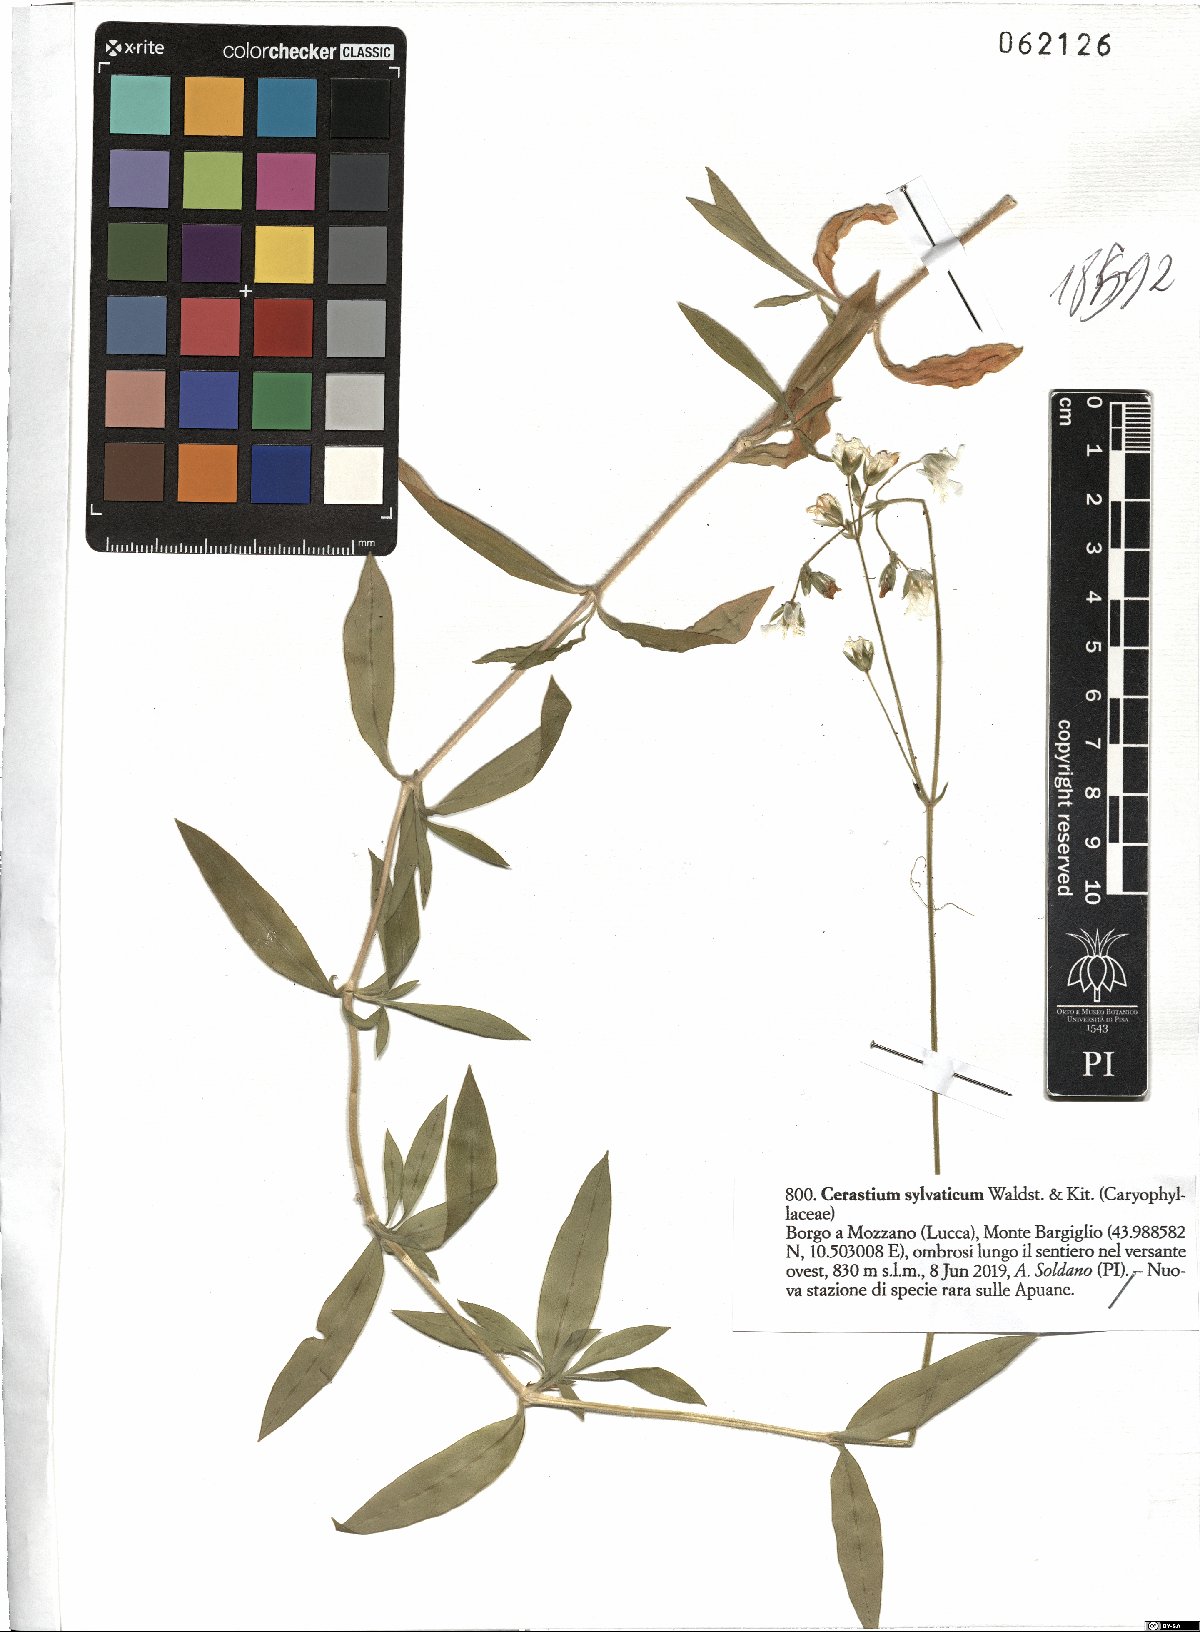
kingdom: Plantae
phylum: Tracheophyta
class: Magnoliopsida
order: Caryophyllales
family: Caryophyllaceae
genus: Cerastium
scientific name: Cerastium sylvaticum
